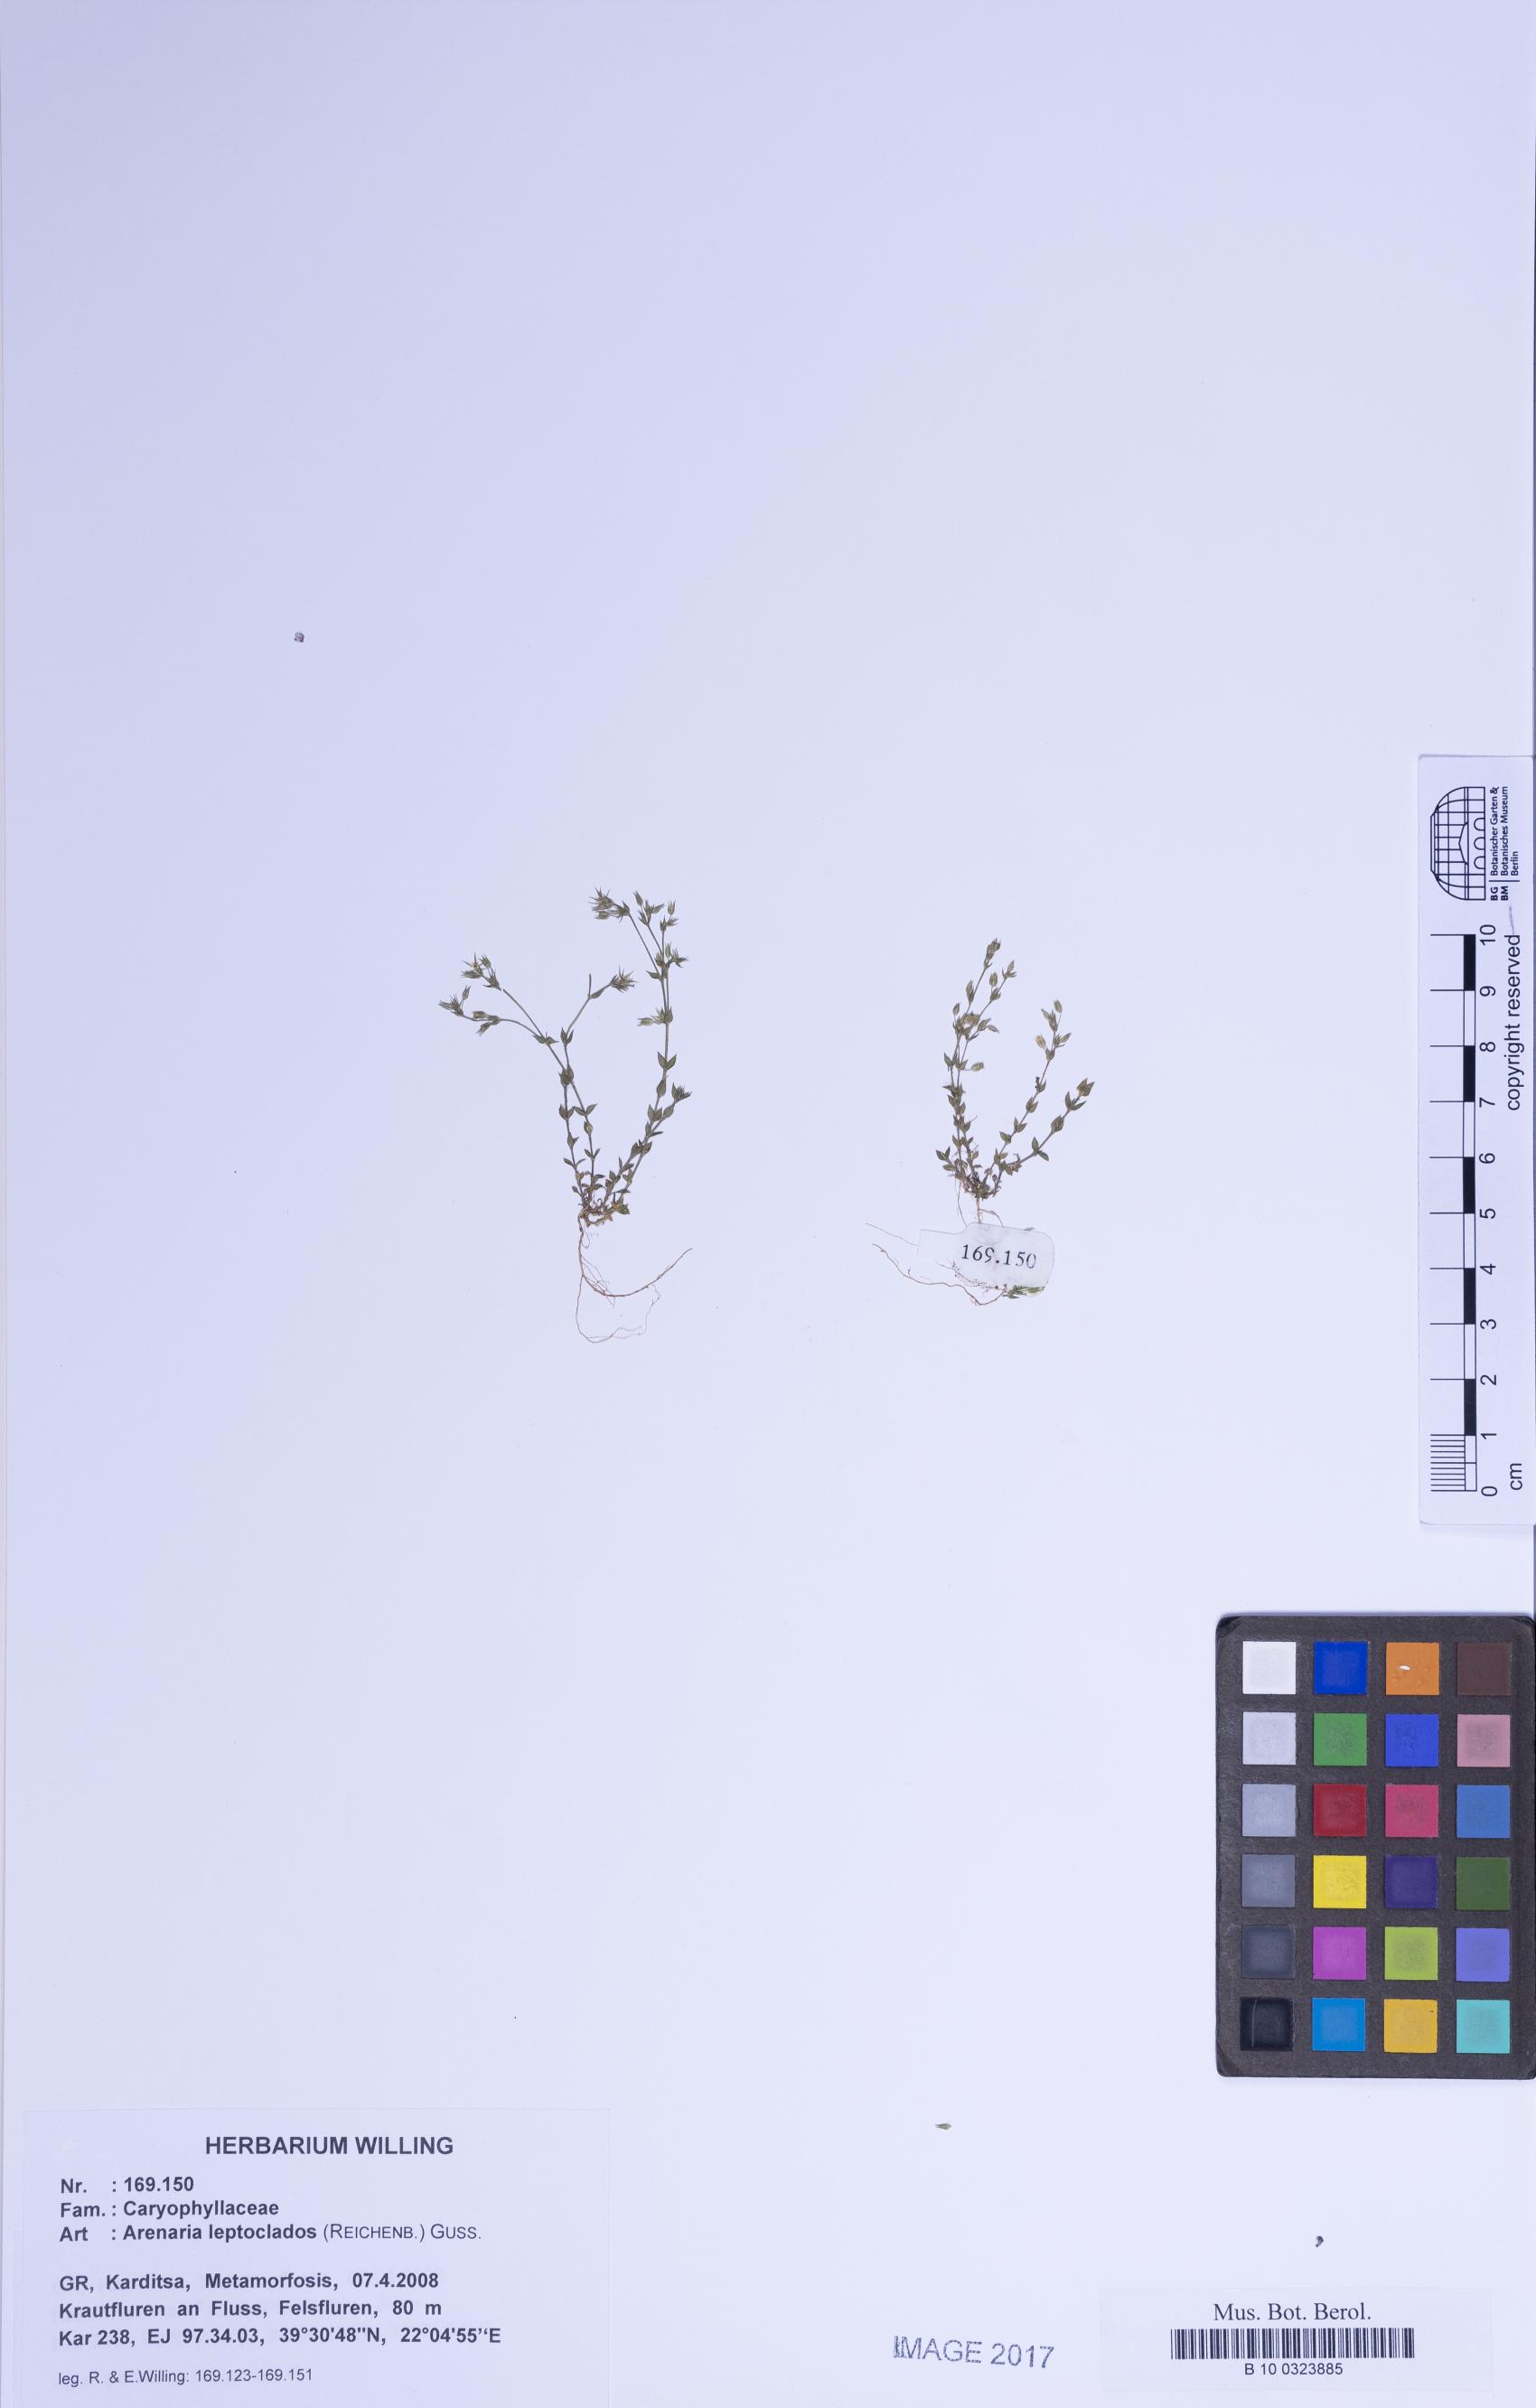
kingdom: Plantae
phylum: Tracheophyta
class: Magnoliopsida
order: Caryophyllales
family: Caryophyllaceae
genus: Arenaria
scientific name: Arenaria leptoclados
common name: Thyme-leaved sandwort
